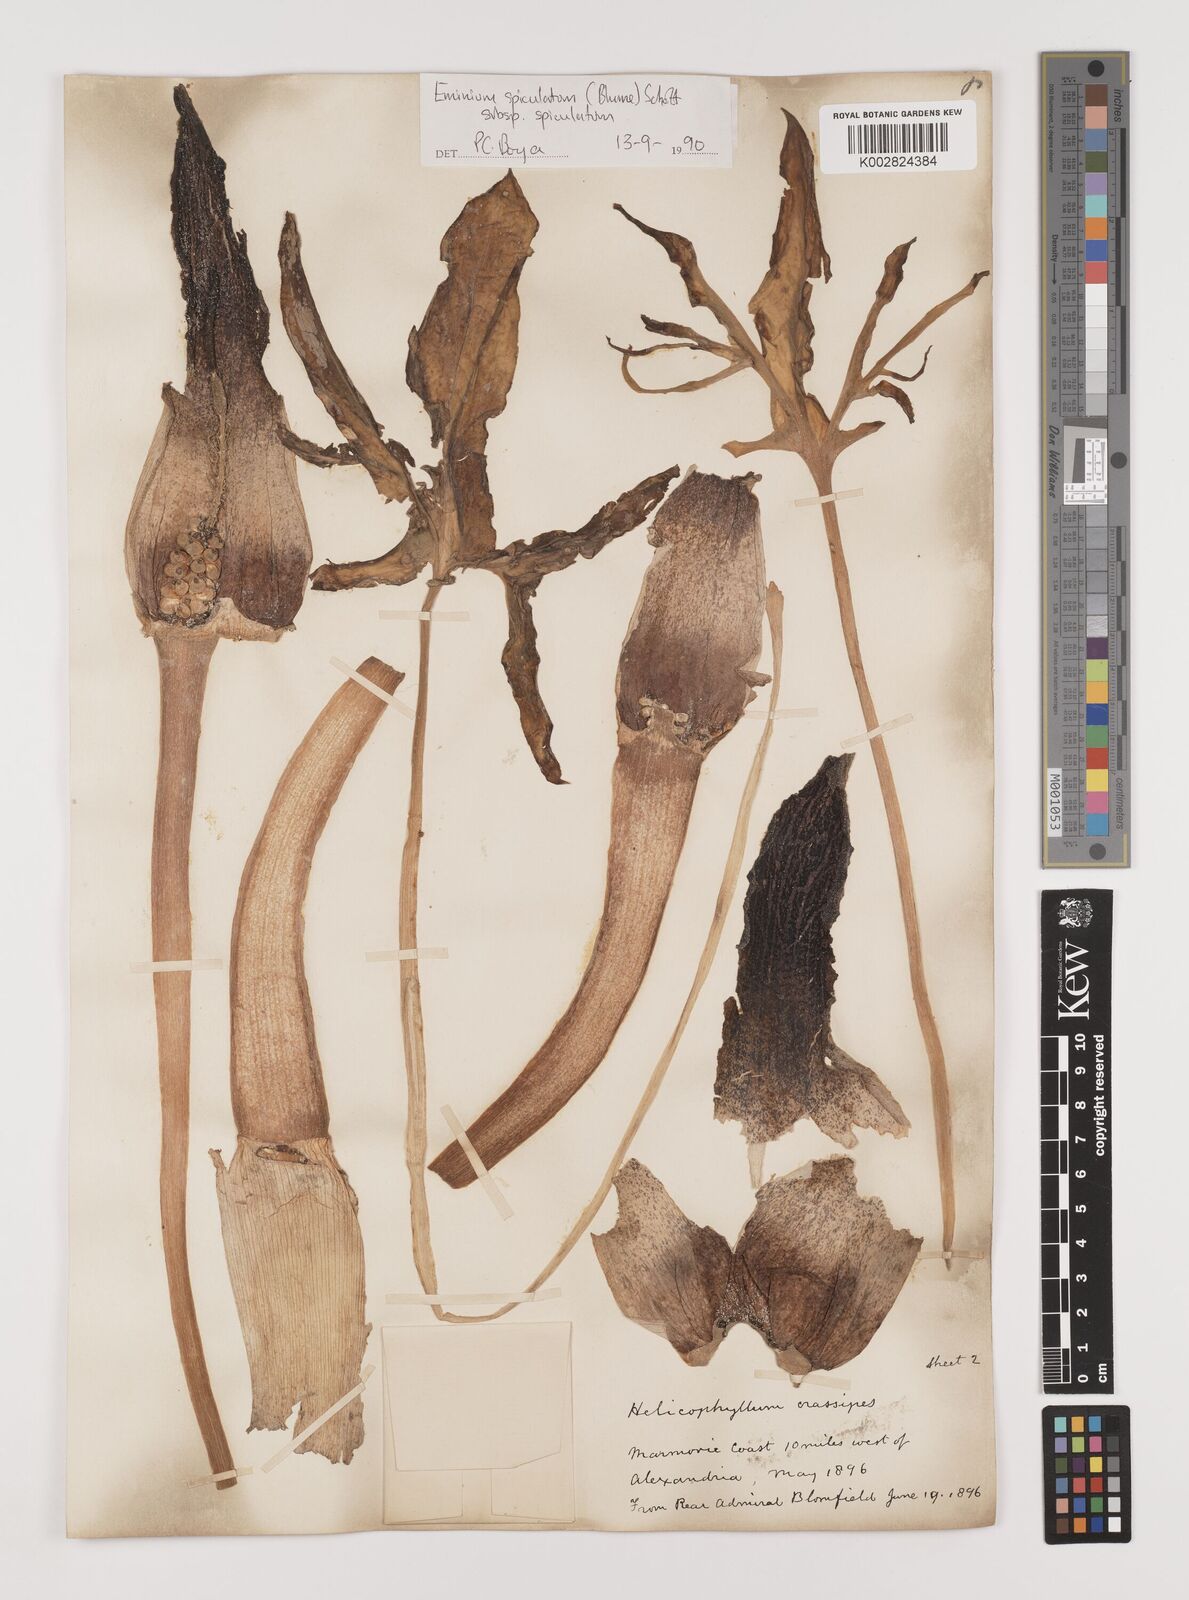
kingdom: Plantae
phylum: Tracheophyta
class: Liliopsida
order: Alismatales
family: Araceae
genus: Eminium
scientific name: Eminium spiculatum
